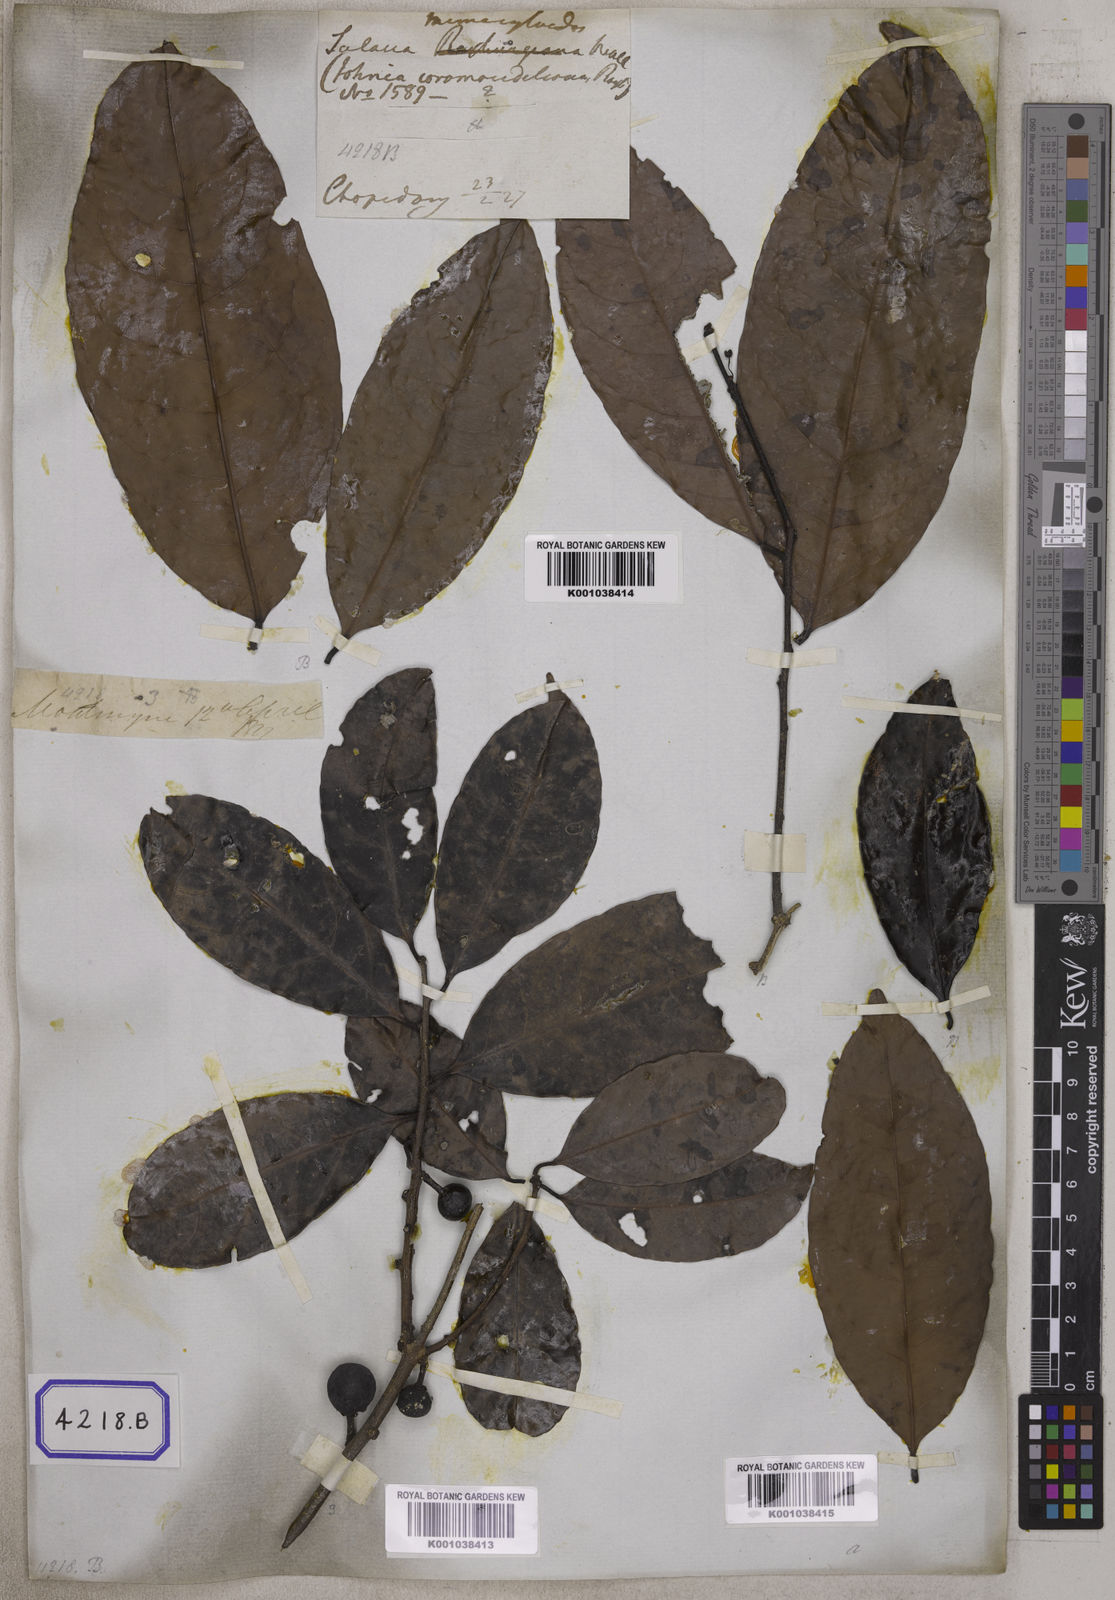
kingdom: Plantae
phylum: Tracheophyta
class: Magnoliopsida
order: Celastrales
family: Celastraceae
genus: Salacia
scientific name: Salacia verrucosa
